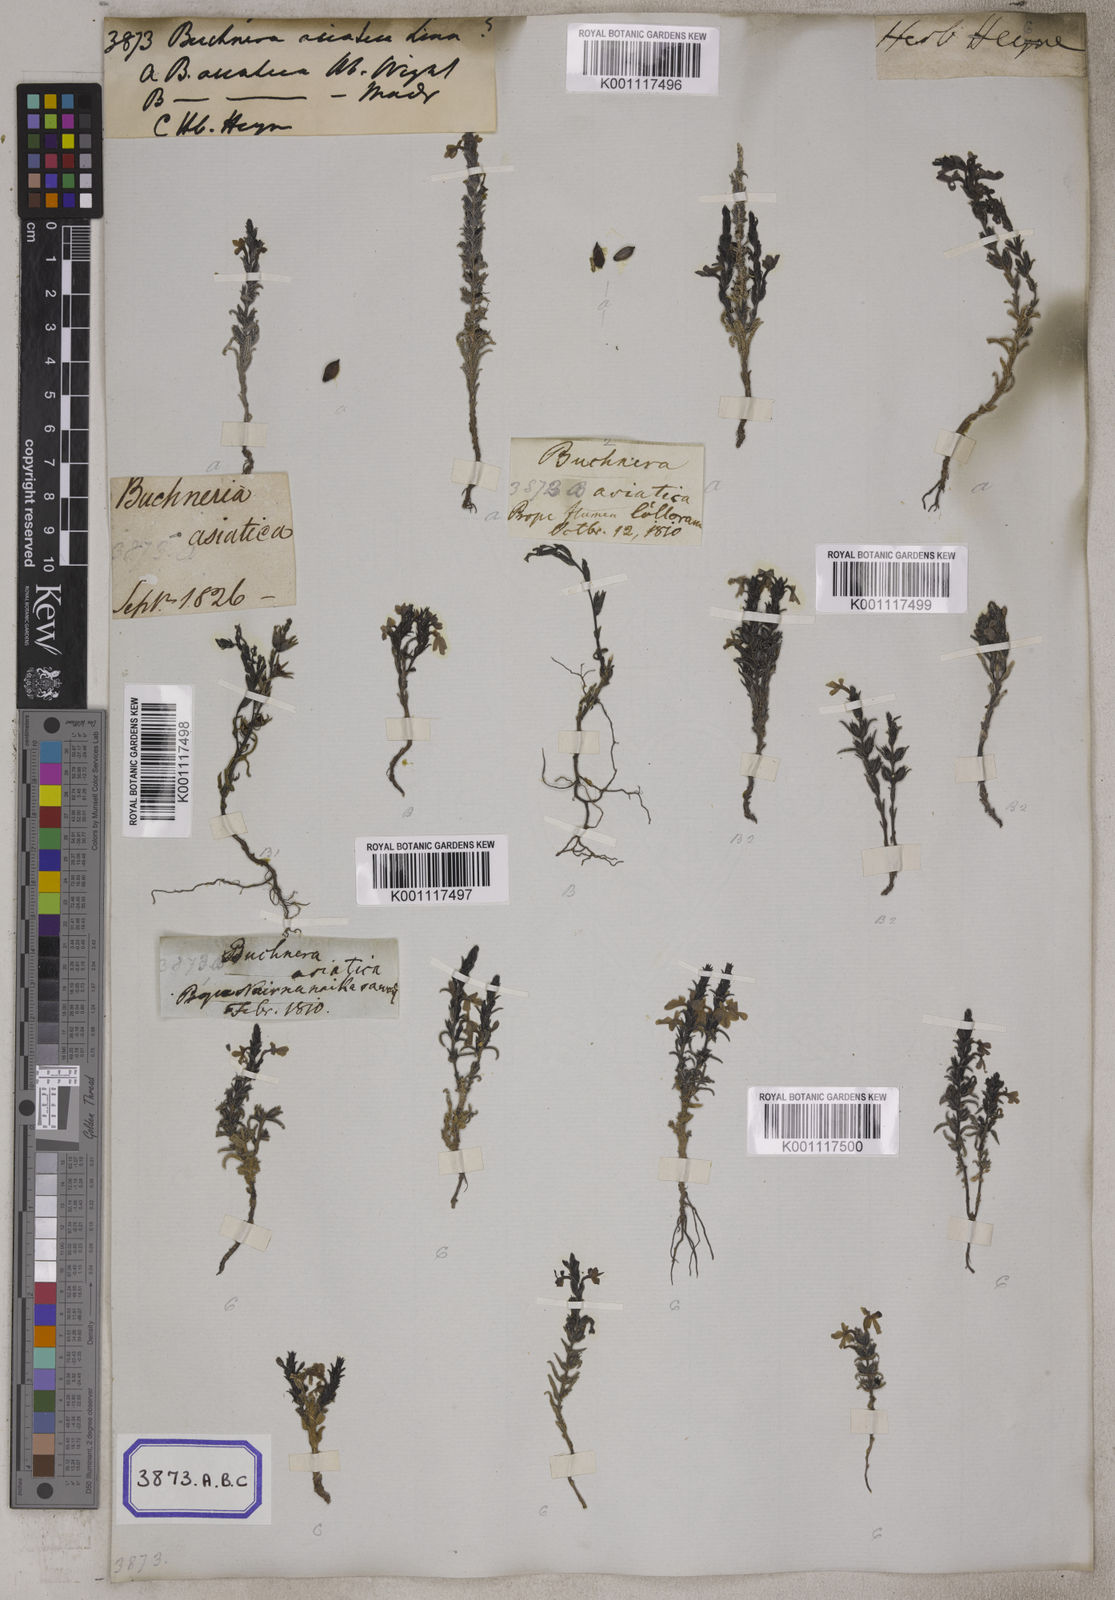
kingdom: Plantae
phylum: Tracheophyta
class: Magnoliopsida
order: Lamiales
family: Orobanchaceae
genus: Striga
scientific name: Striga asiatica
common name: Asiatic witchweed
